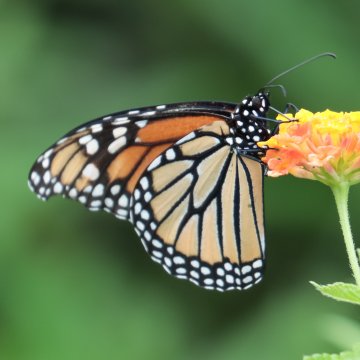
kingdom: Animalia
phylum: Arthropoda
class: Insecta
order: Lepidoptera
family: Nymphalidae
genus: Danaus
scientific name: Danaus plexippus
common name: Monarch
